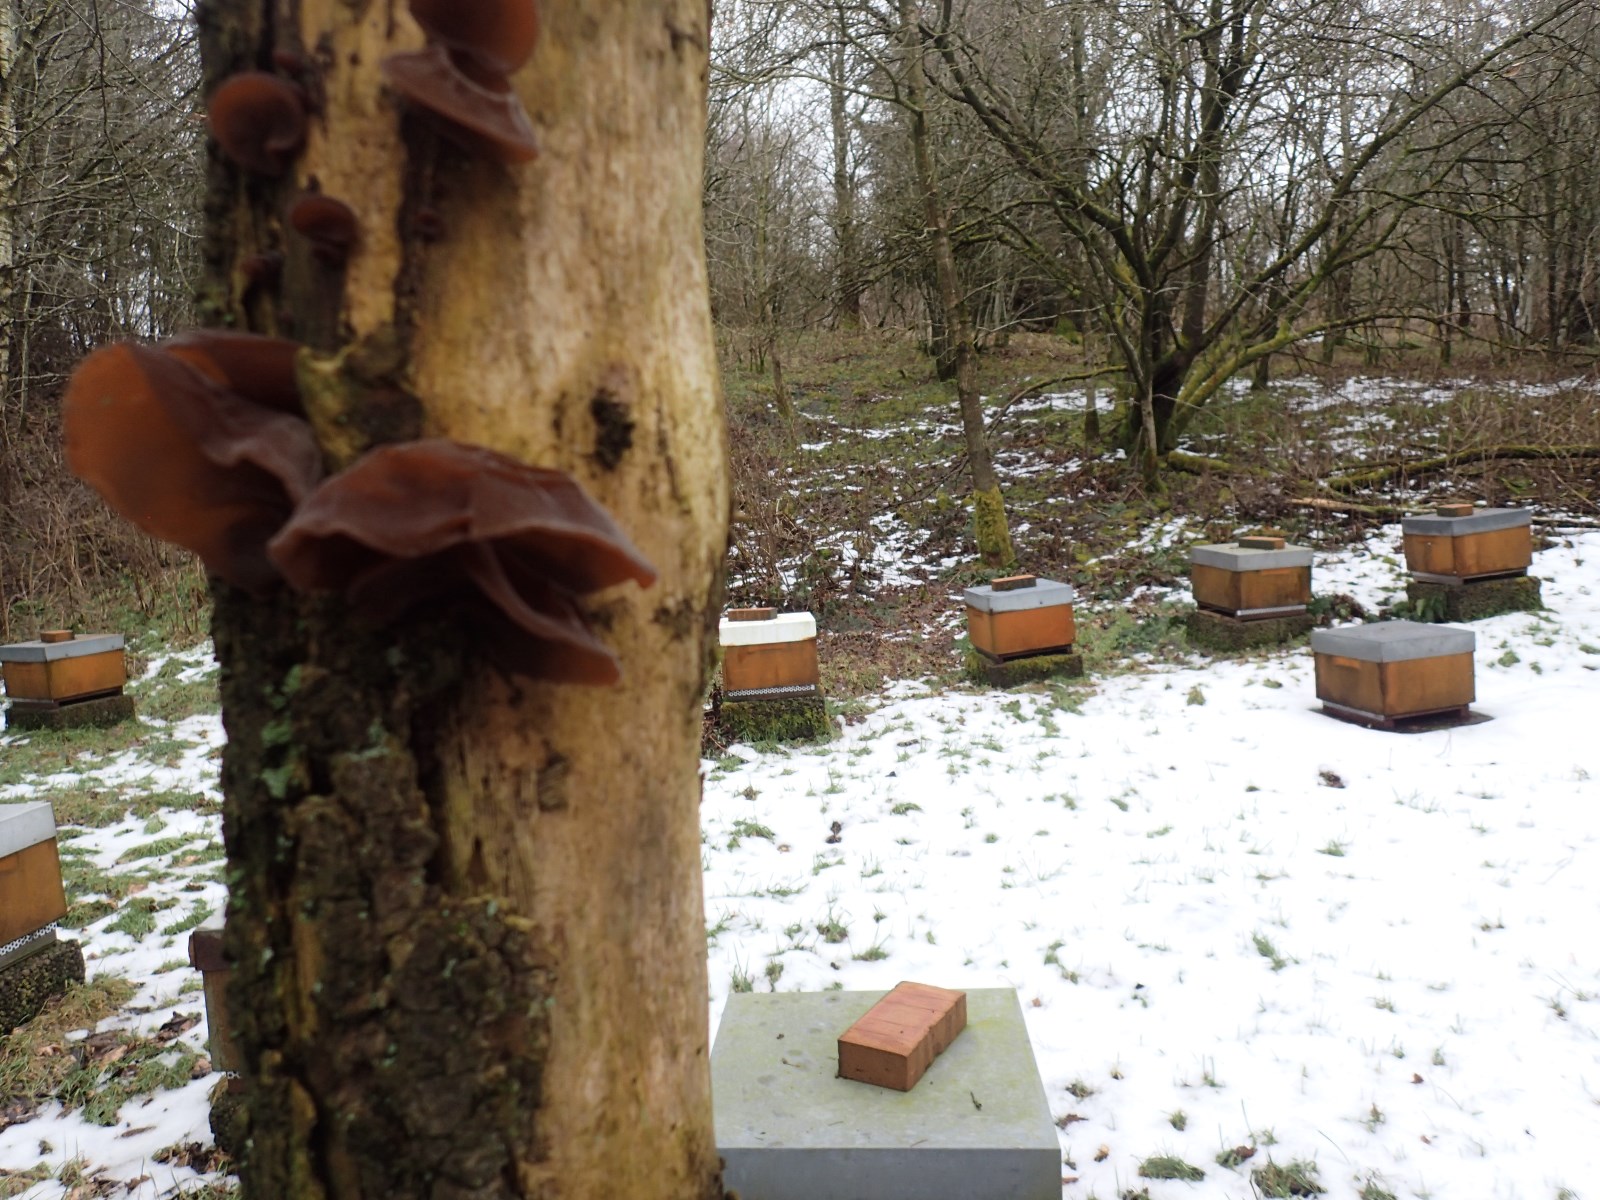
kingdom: Fungi
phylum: Basidiomycota
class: Agaricomycetes
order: Auriculariales
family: Auriculariaceae
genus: Auricularia
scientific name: Auricularia auricula-judae
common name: almindelig judasøre
